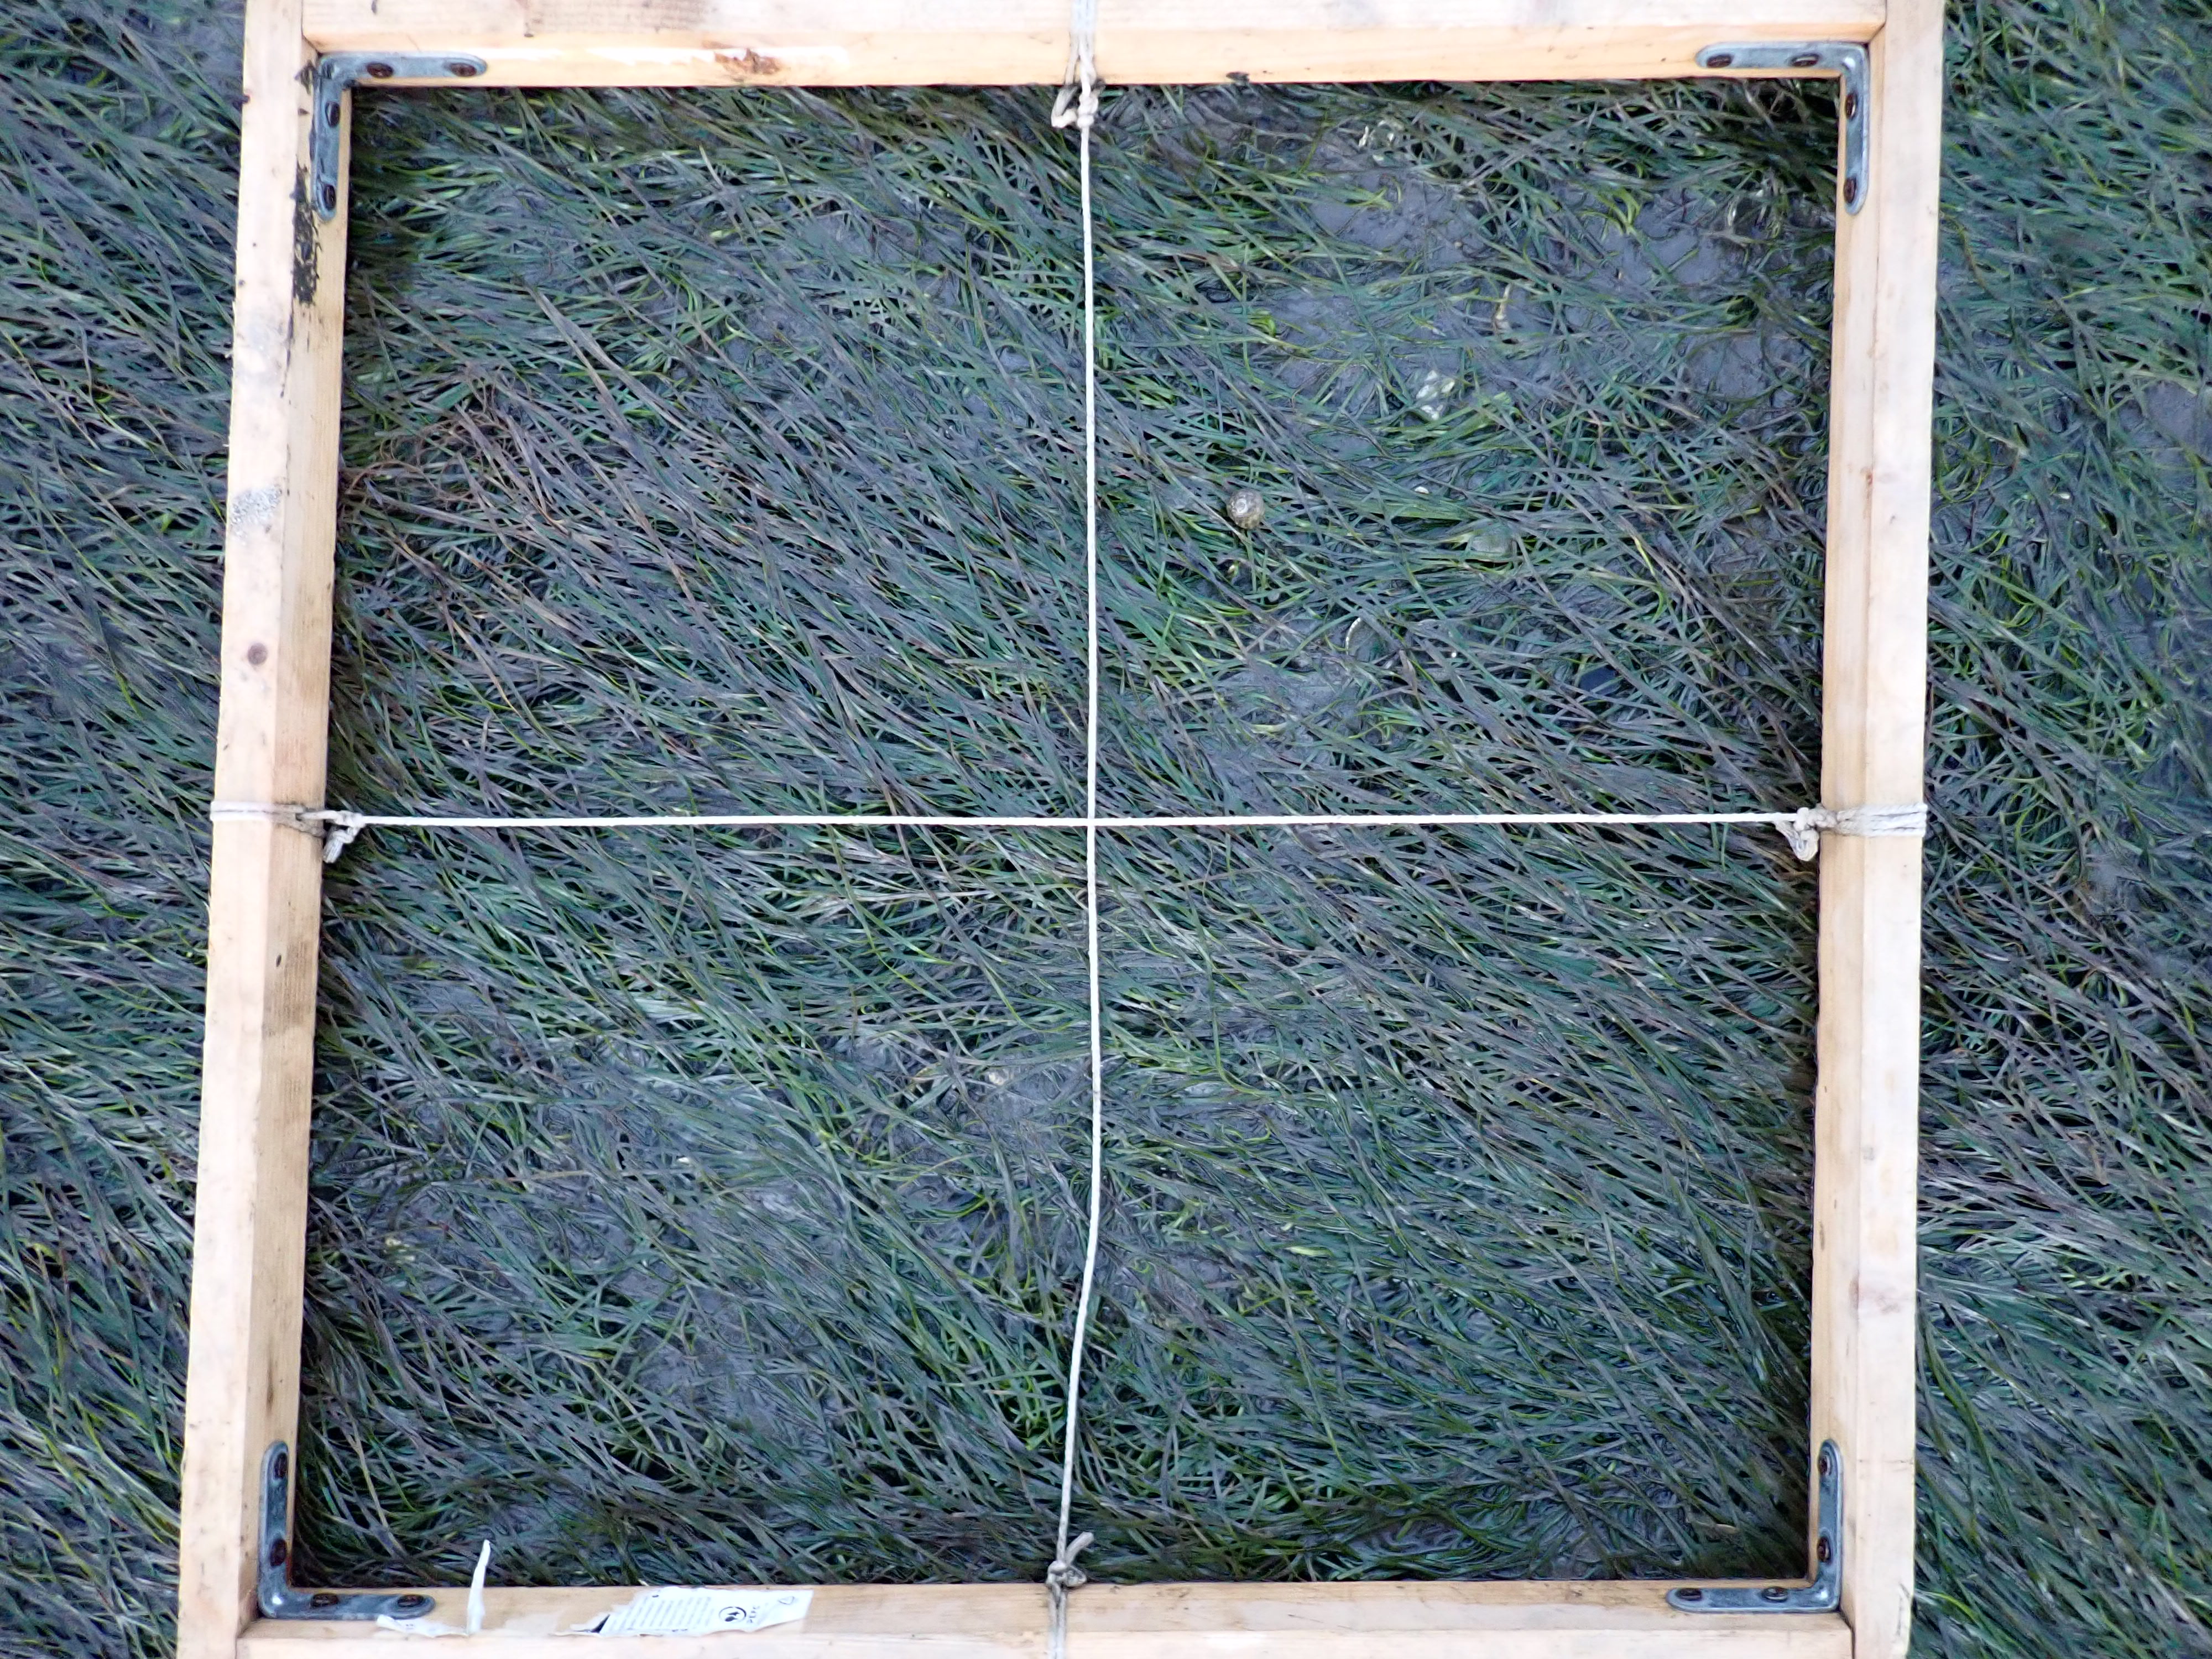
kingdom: Plantae
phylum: Tracheophyta
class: Liliopsida
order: Alismatales
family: Zosteraceae
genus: Zostera
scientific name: Zostera noltii
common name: Dwarf eelgrass
